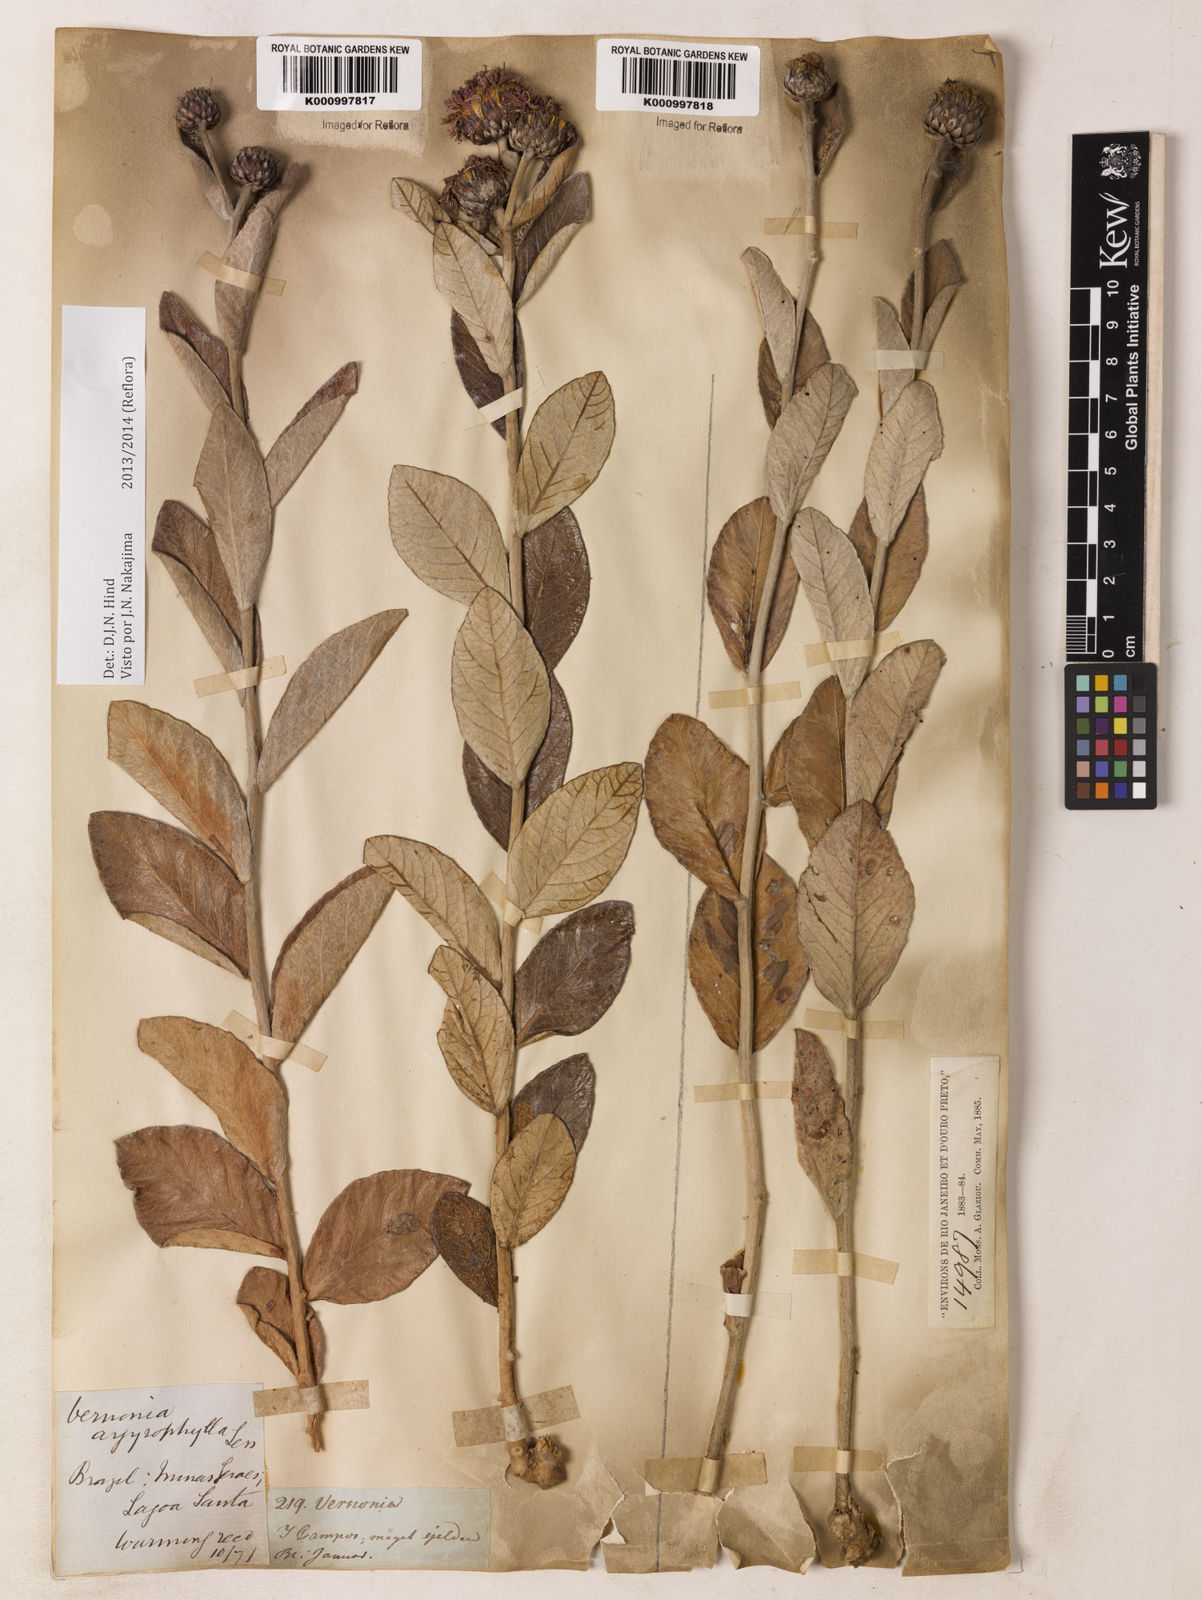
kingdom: Plantae
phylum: Tracheophyta
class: Magnoliopsida
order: Asterales
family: Asteraceae
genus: Lessingianthus
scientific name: Lessingianthus argyrophyllus
